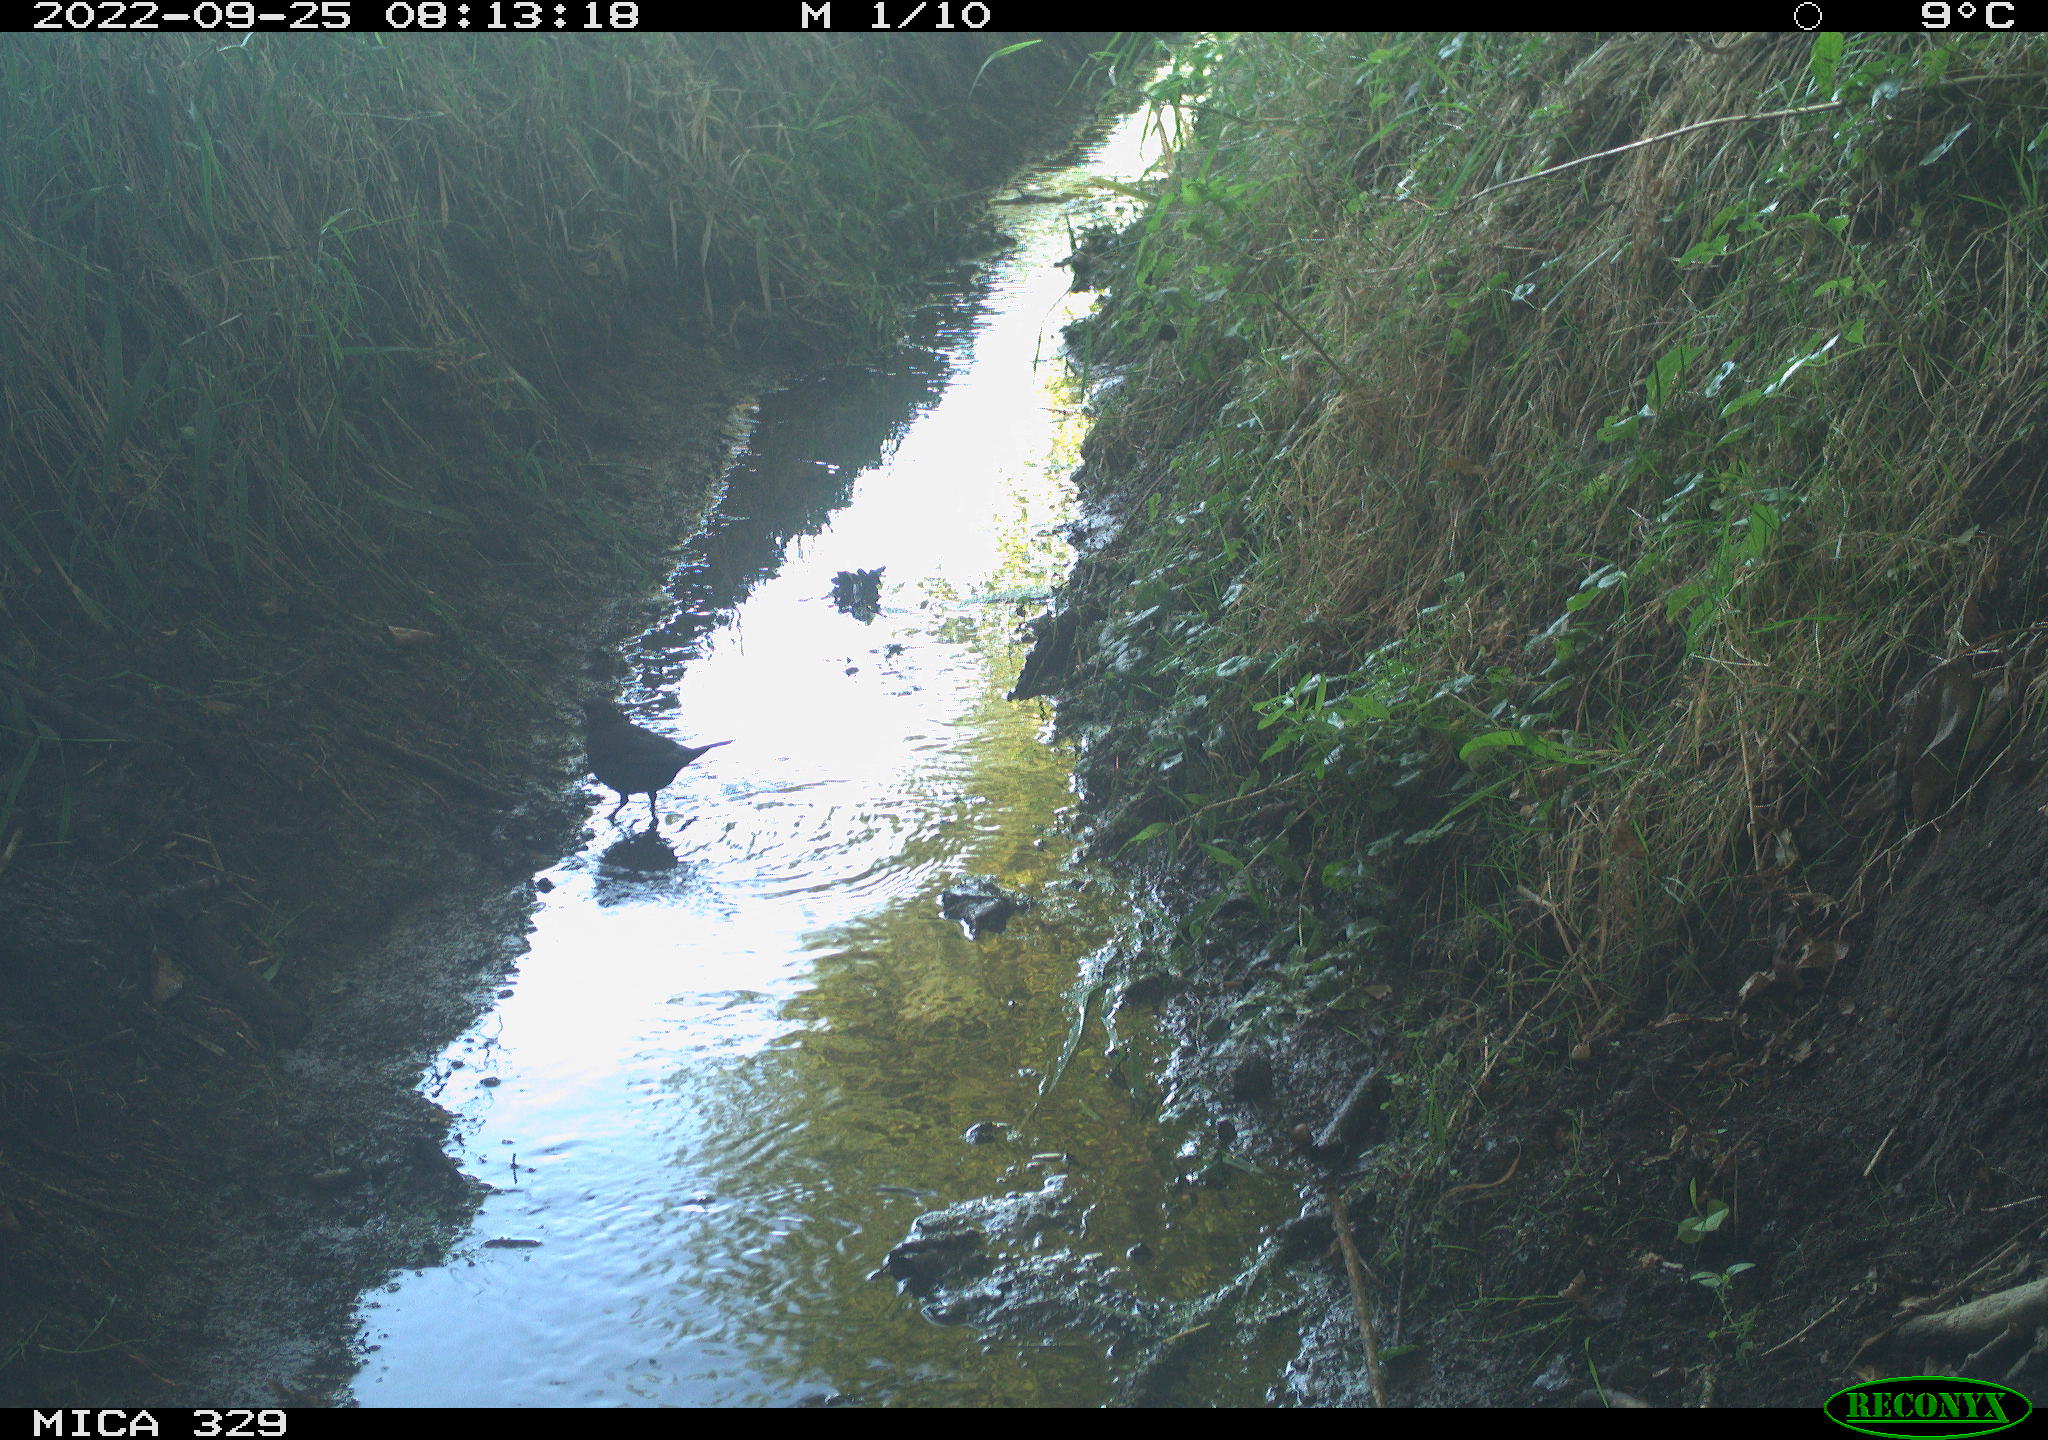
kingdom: Animalia
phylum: Chordata
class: Aves
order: Passeriformes
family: Turdidae
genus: Turdus
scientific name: Turdus merula
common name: Common blackbird
